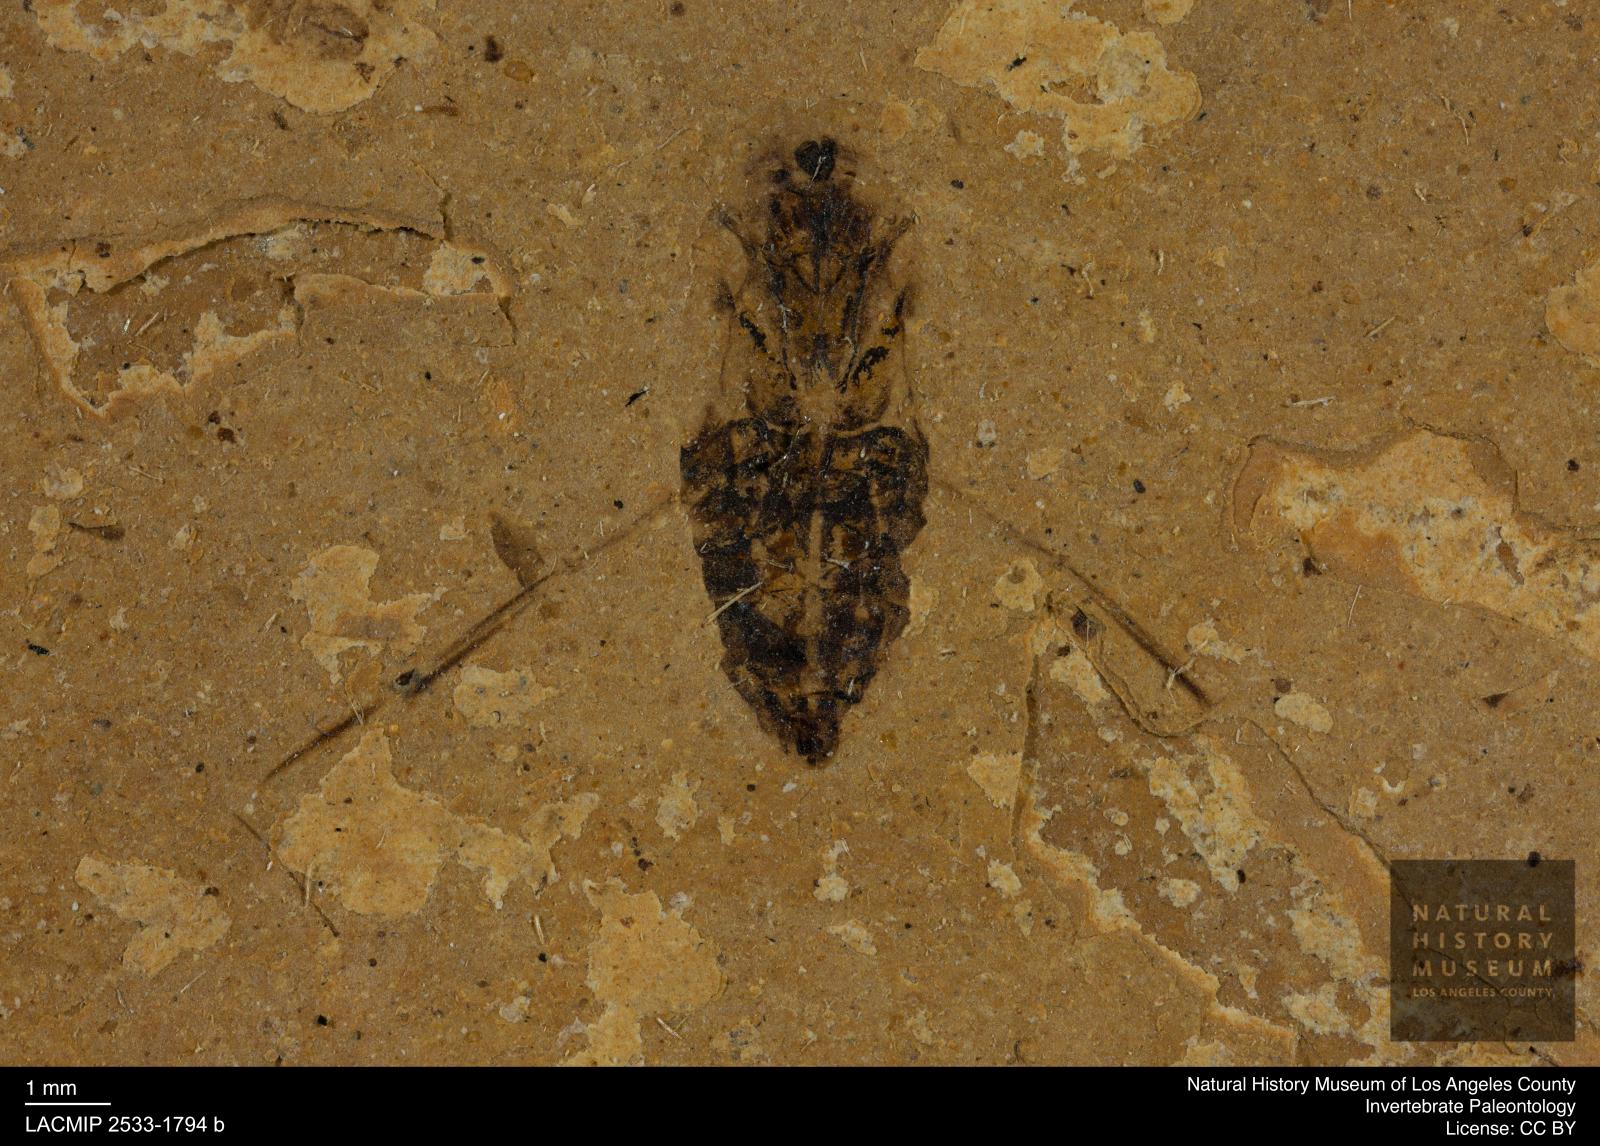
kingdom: Animalia
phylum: Arthropoda
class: Insecta
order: Hemiptera
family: Notonectidae
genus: Anisops
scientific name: Anisops Notonecta deichmuelleri
